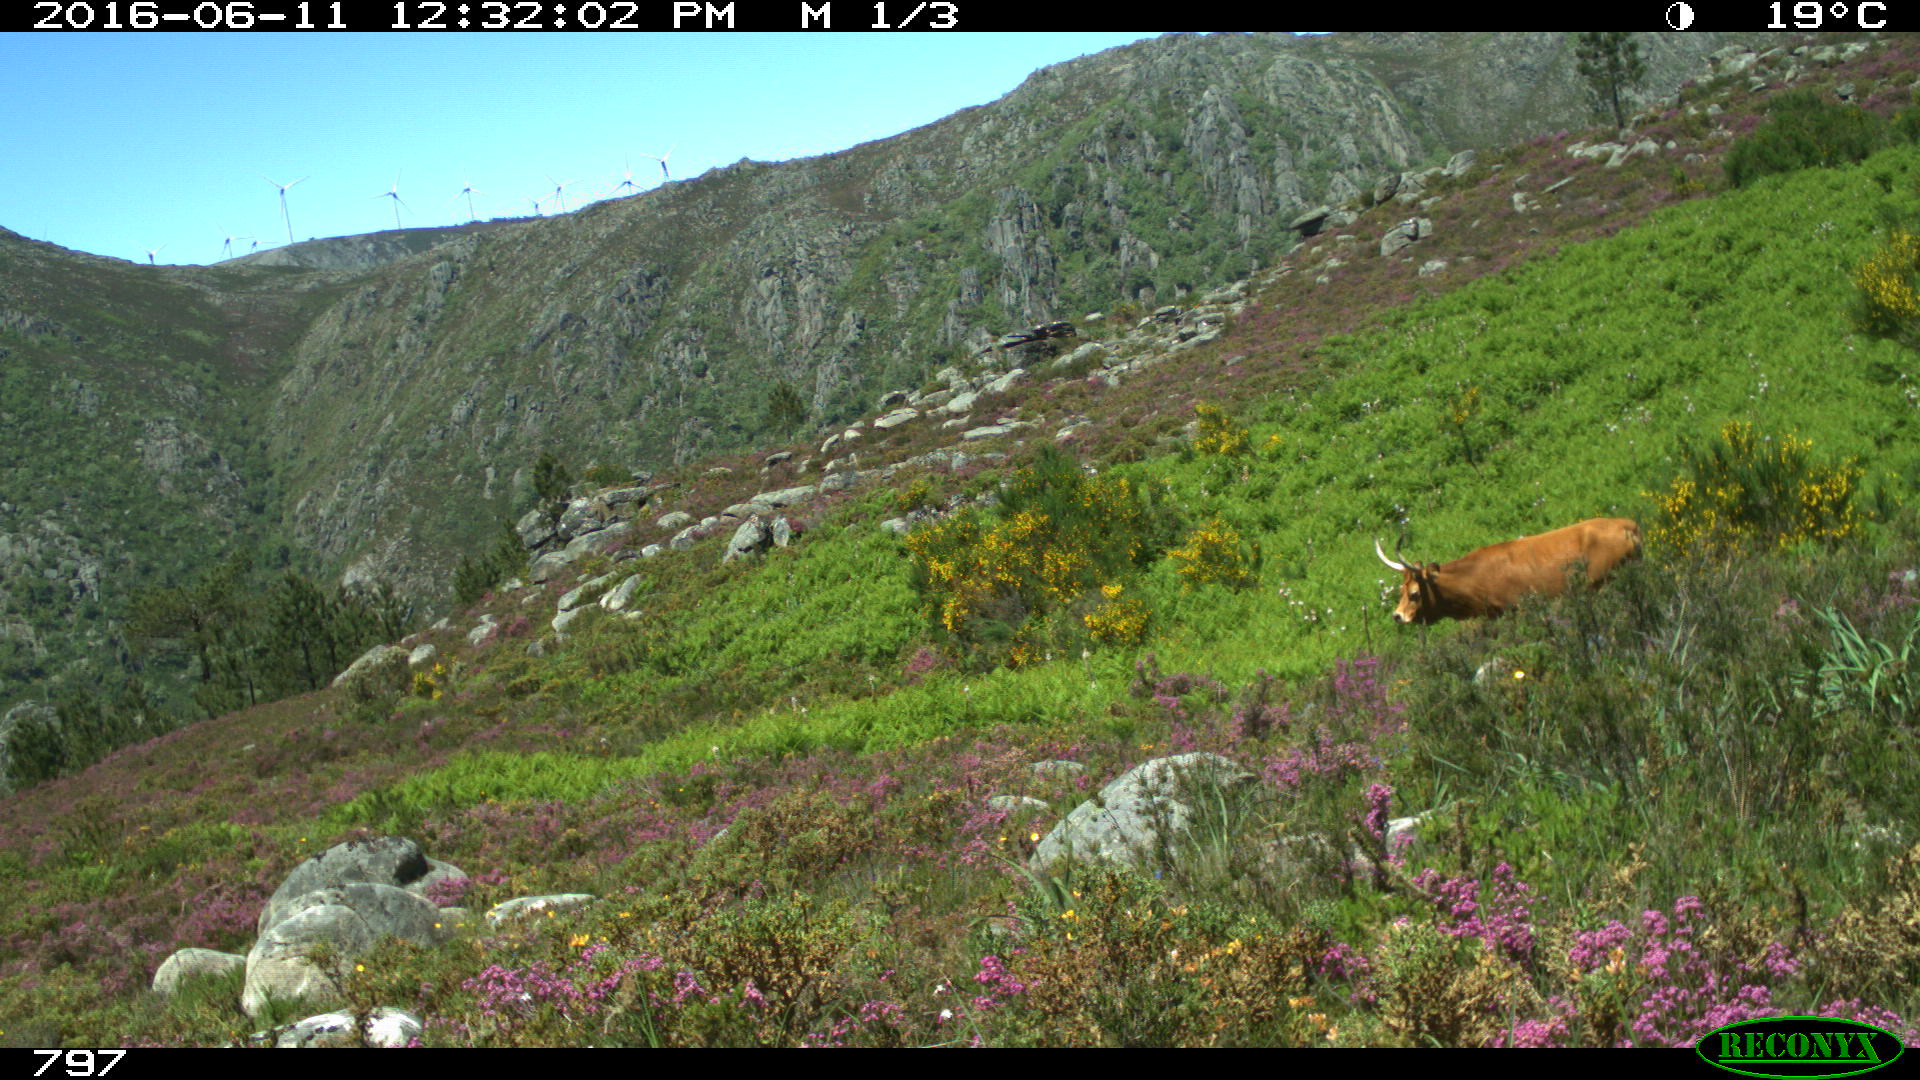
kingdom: Animalia
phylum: Chordata
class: Mammalia
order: Artiodactyla
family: Bovidae
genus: Bos
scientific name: Bos taurus
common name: Domesticated cattle
